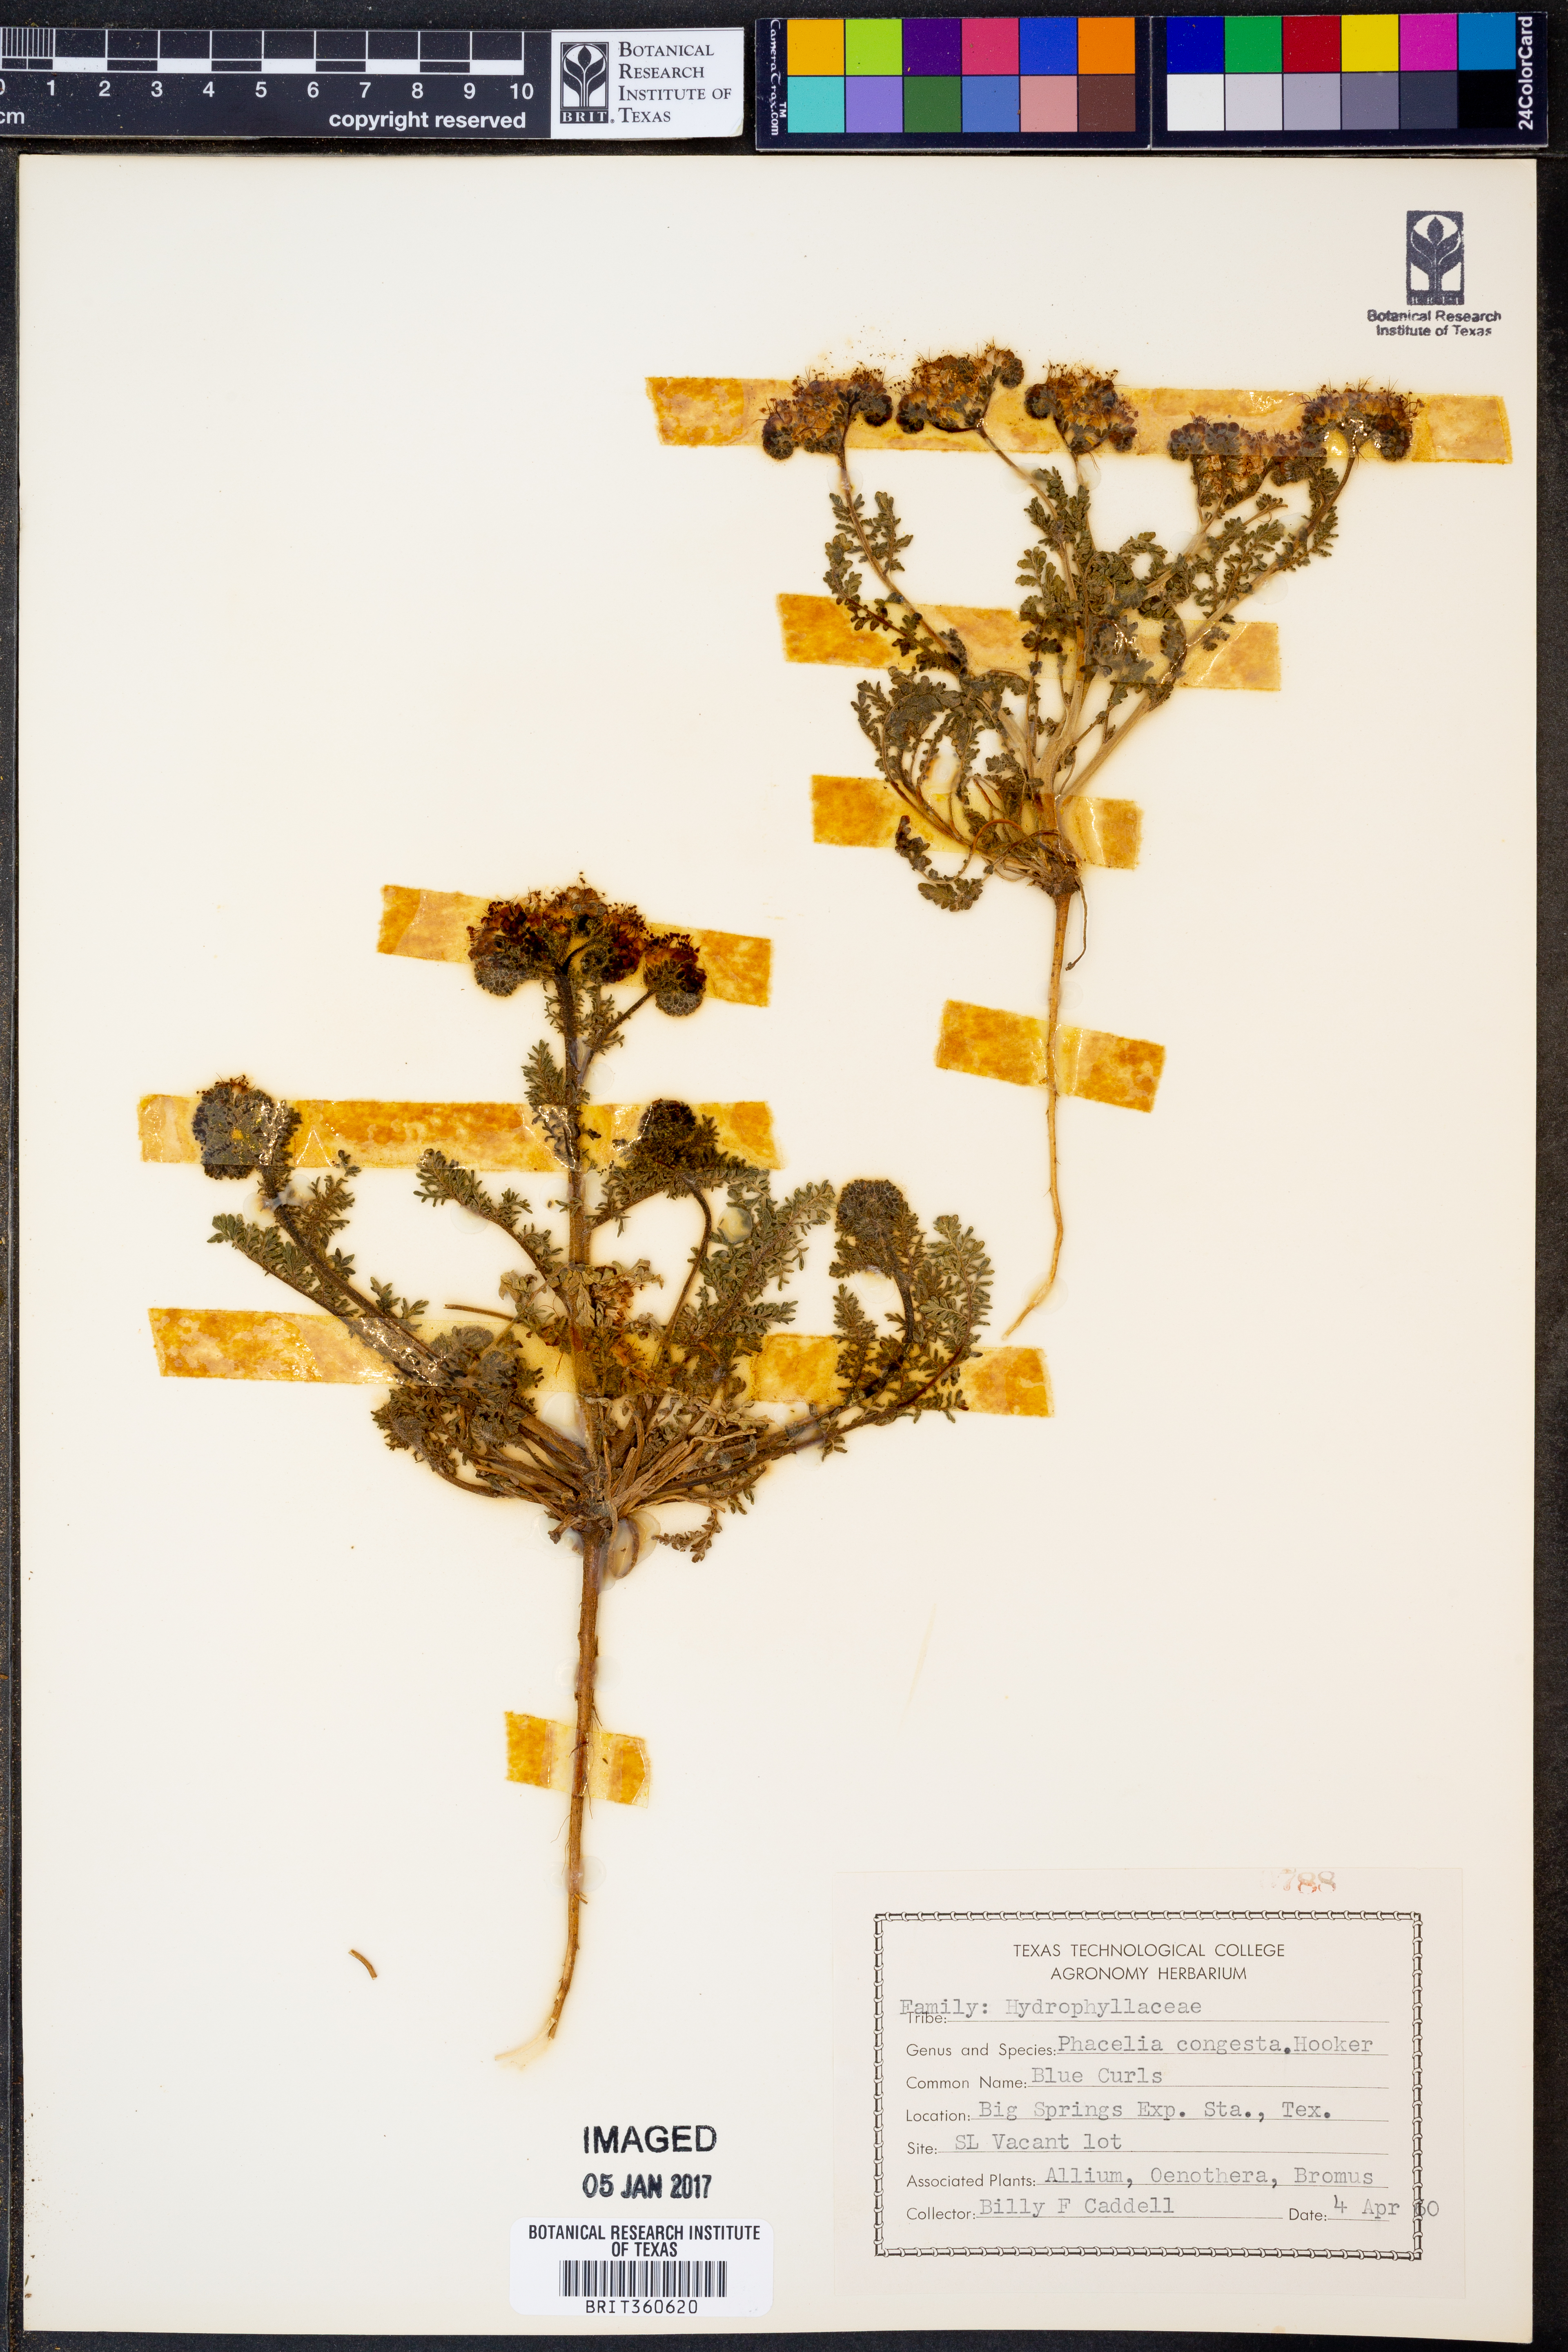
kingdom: Plantae
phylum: Tracheophyta
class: Magnoliopsida
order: Boraginales
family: Hydrophyllaceae
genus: Phacelia
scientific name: Phacelia congesta
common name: Blue curls
